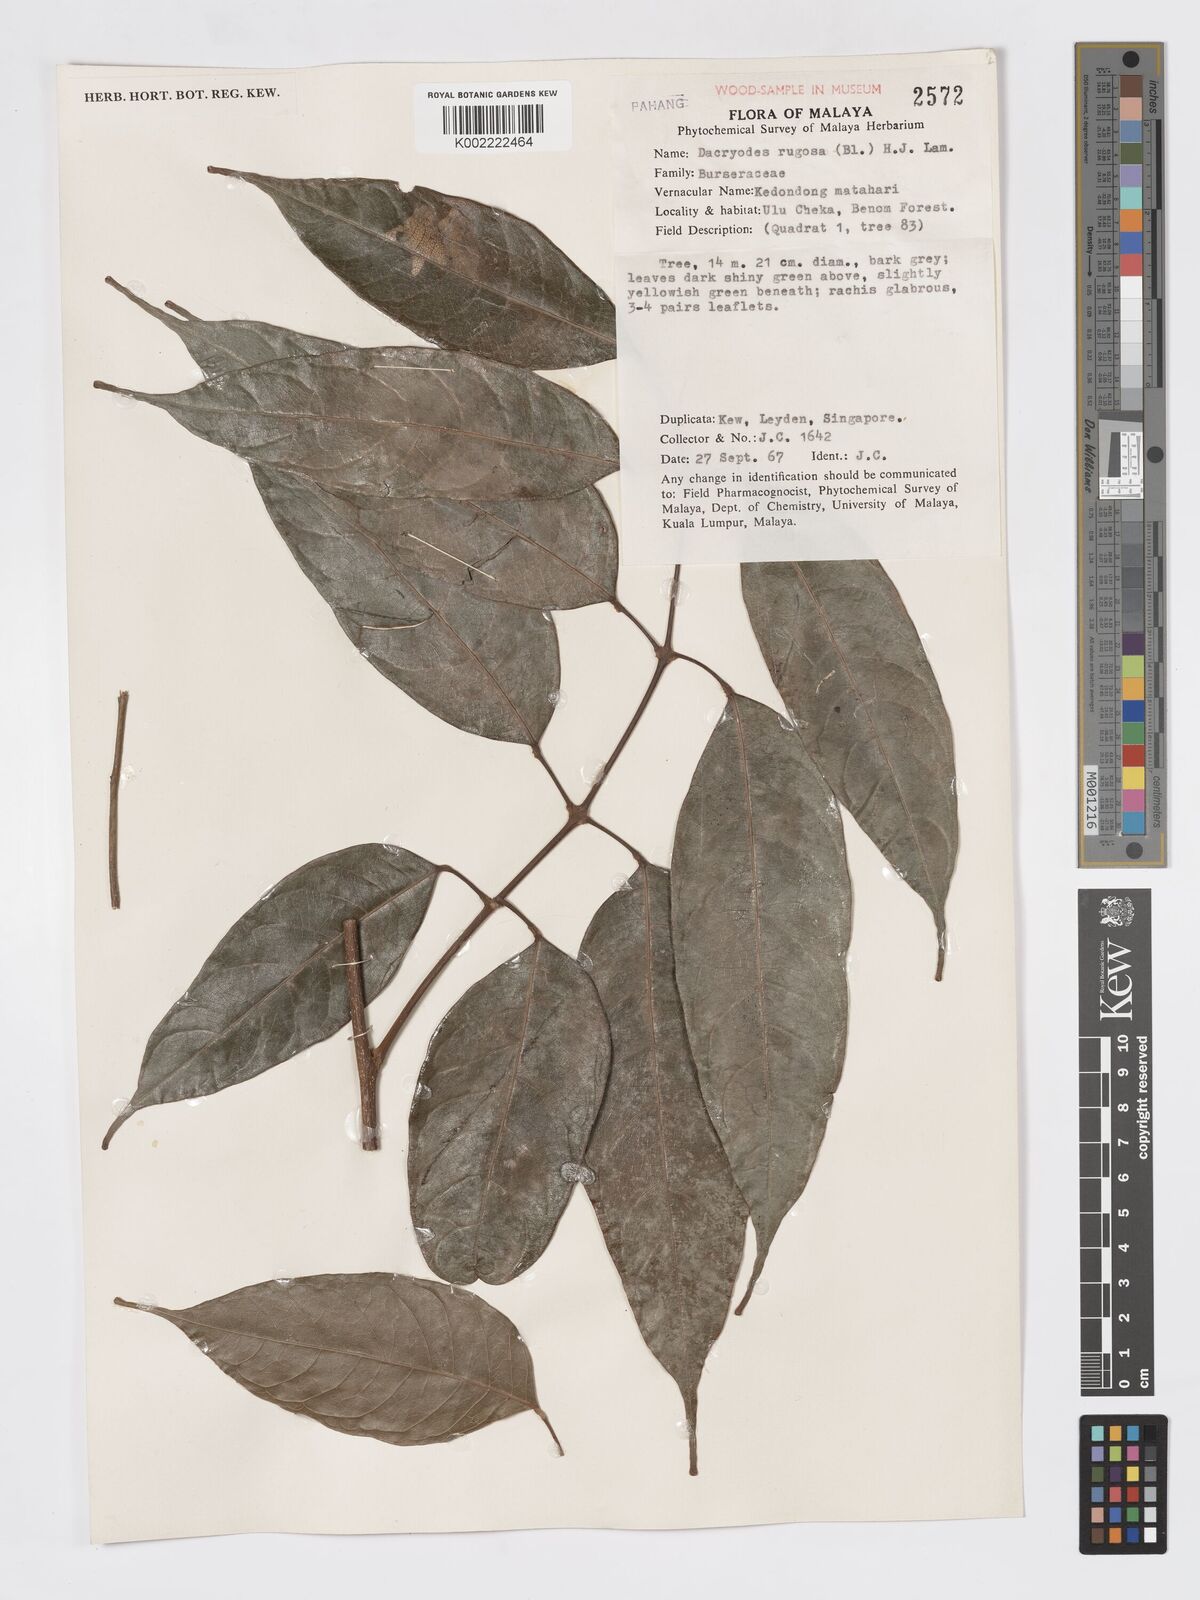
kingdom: Plantae
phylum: Tracheophyta
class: Magnoliopsida
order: Sapindales
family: Burseraceae
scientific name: Burseraceae
